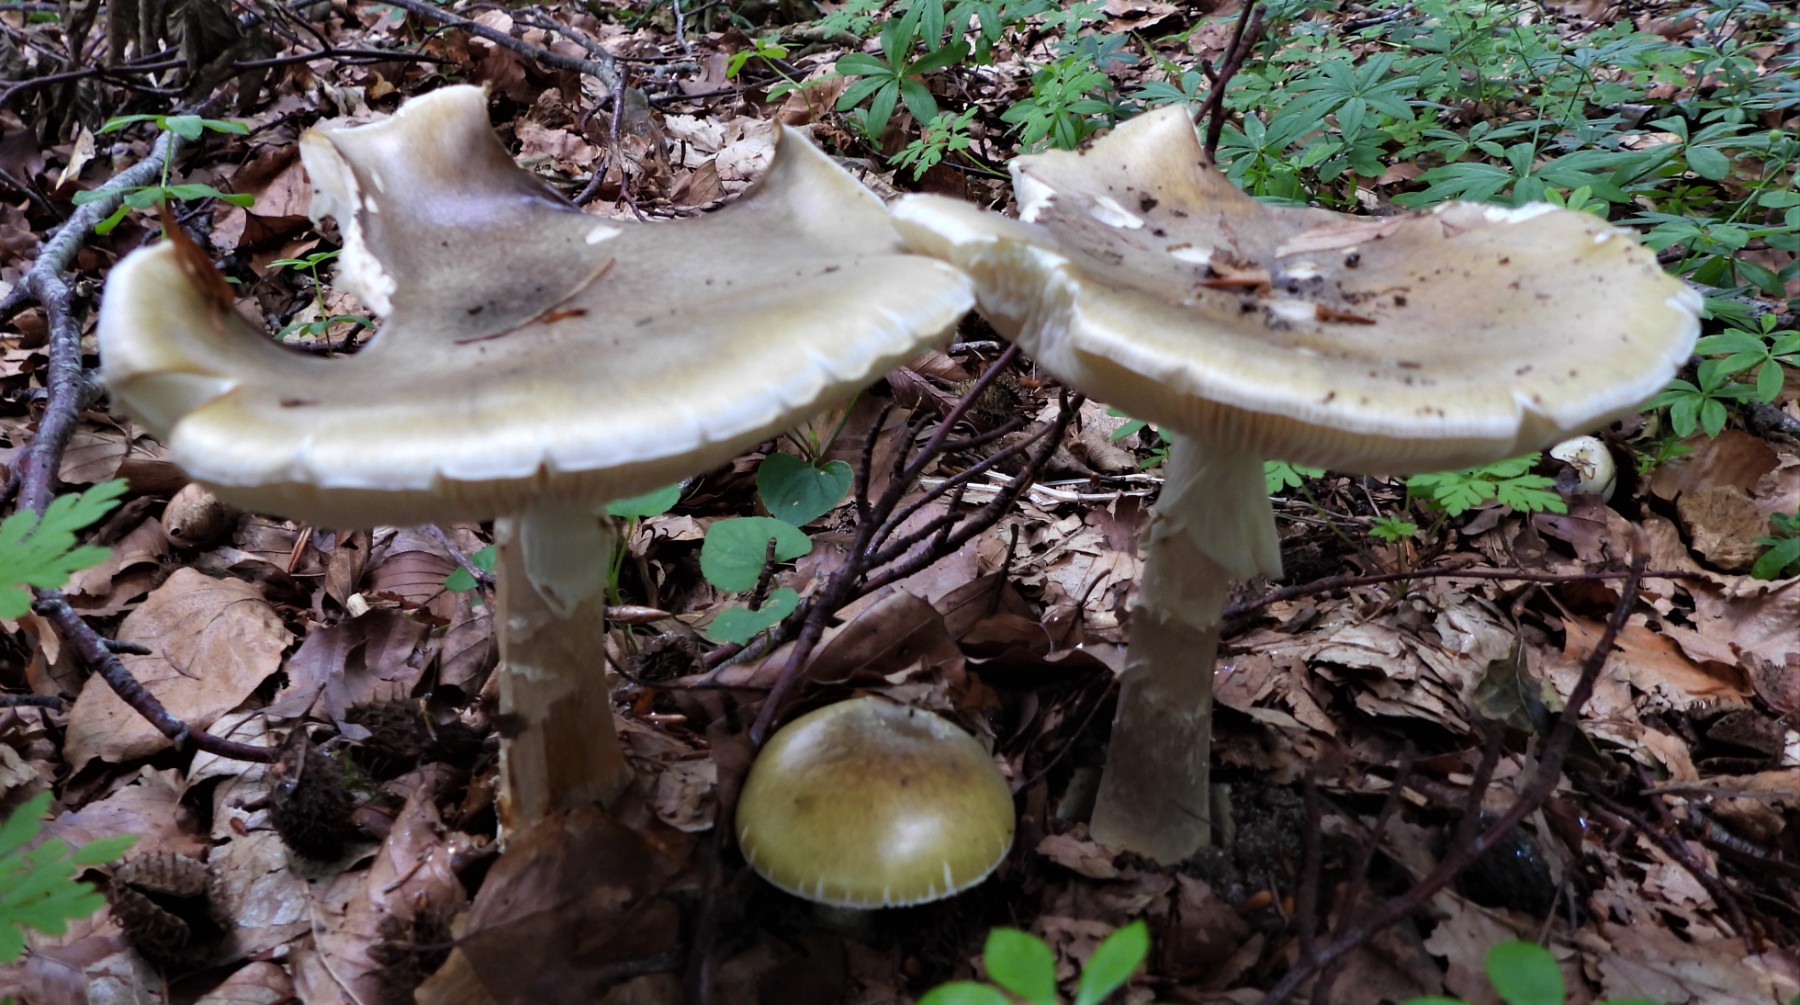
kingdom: Fungi
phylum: Basidiomycota
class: Agaricomycetes
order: Agaricales
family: Amanitaceae
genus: Amanita
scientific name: Amanita phalloides
